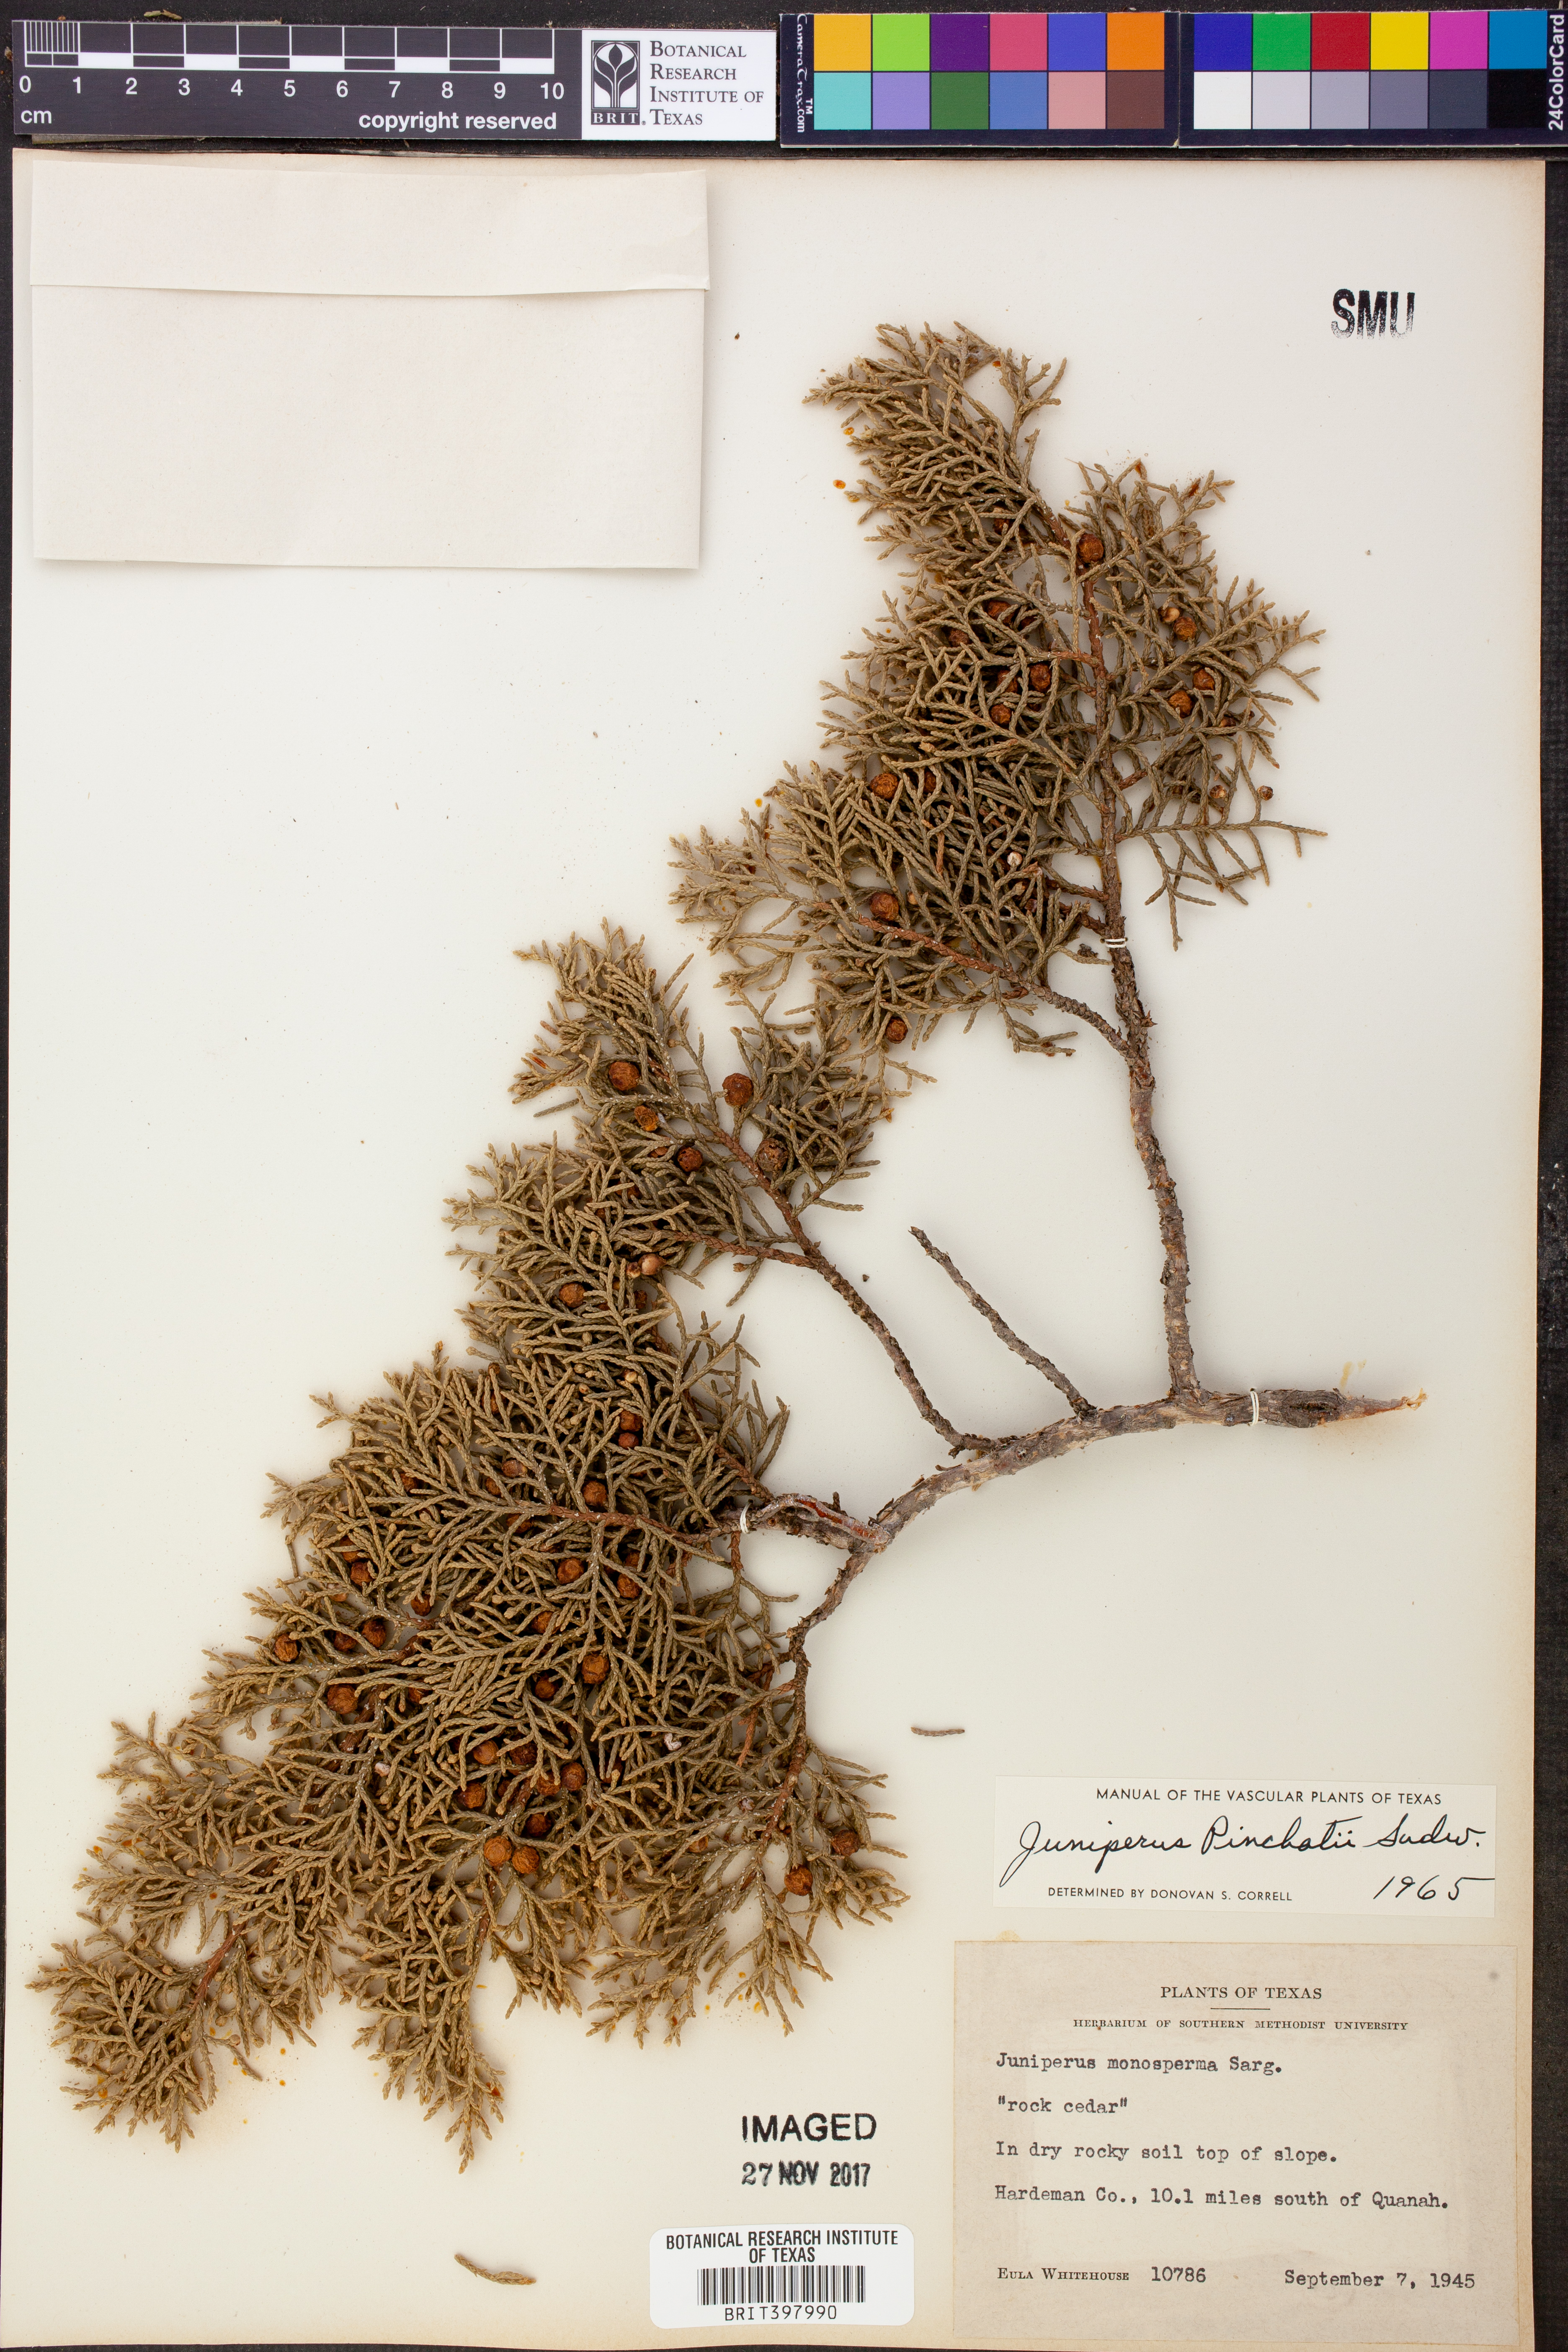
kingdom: Plantae
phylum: Tracheophyta
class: Pinopsida
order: Pinales
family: Cupressaceae
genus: Juniperus
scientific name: Juniperus pinchotii
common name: Pinchot juniper
